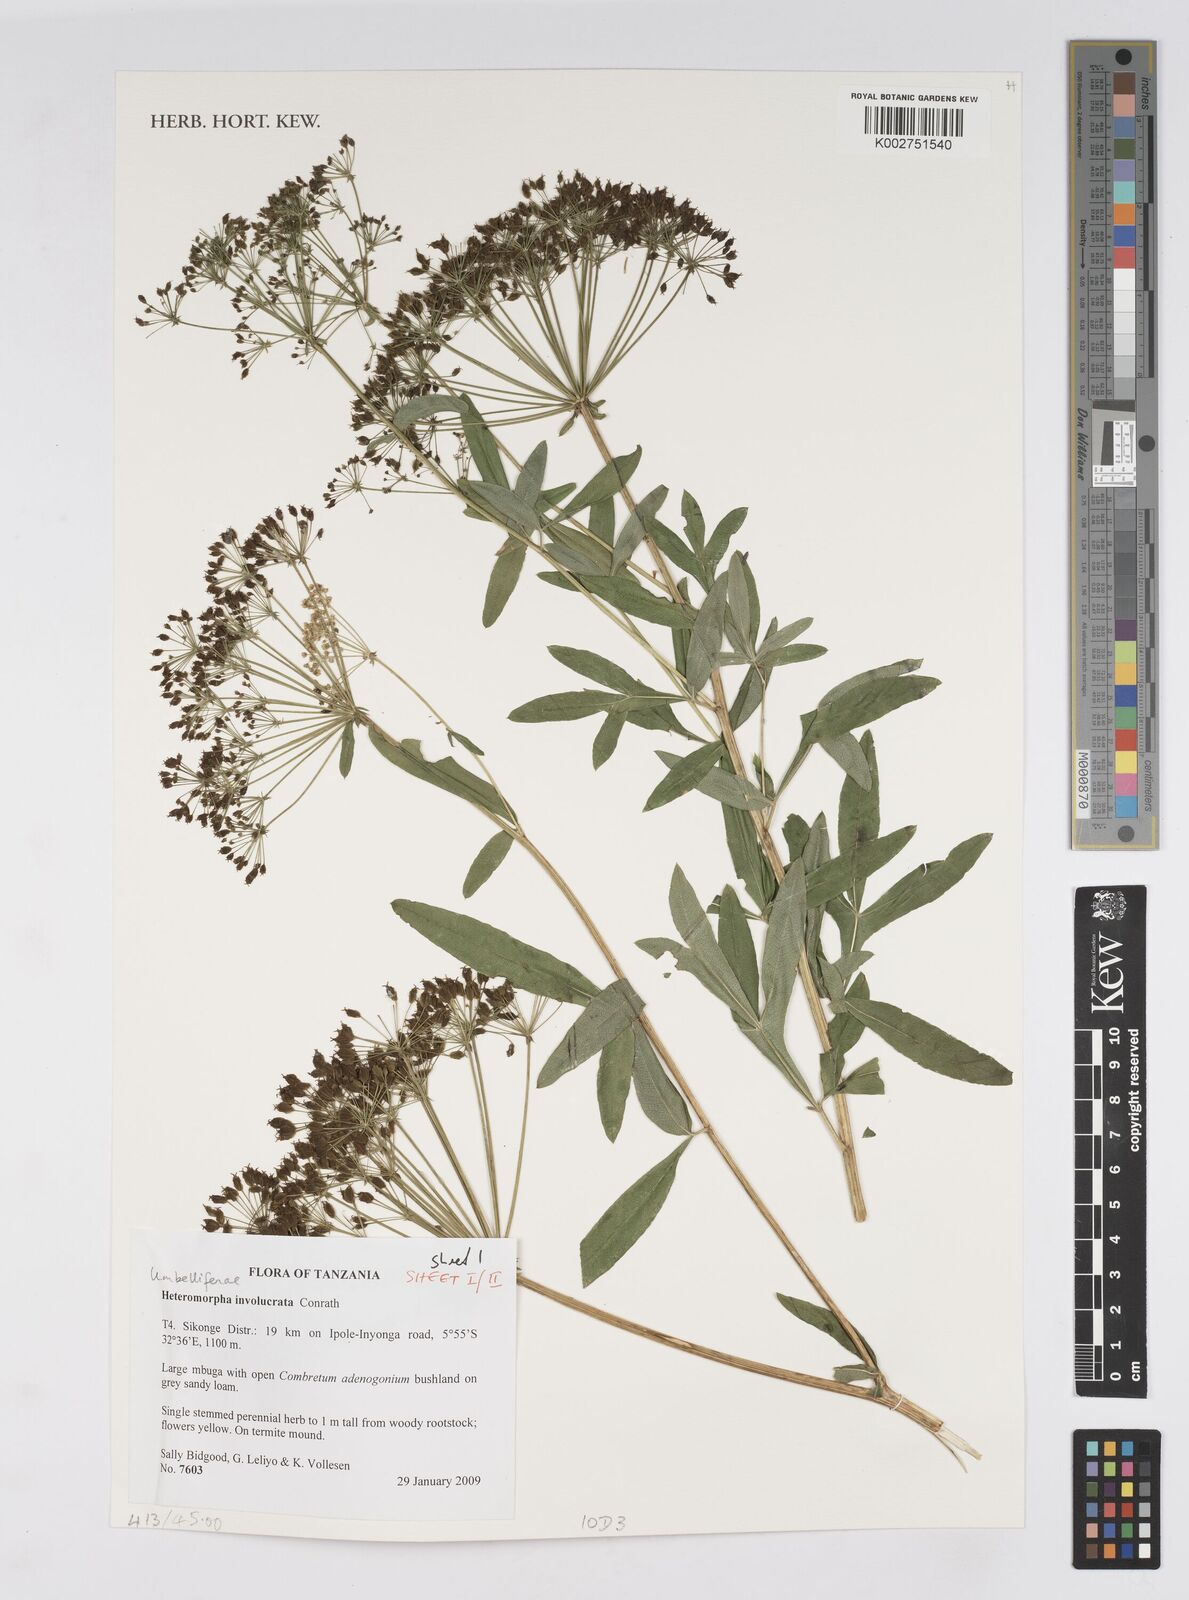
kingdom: Plantae
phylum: Tracheophyta
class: Magnoliopsida
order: Apiales
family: Apiaceae
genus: Heteromorpha
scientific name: Heteromorpha involucrata
